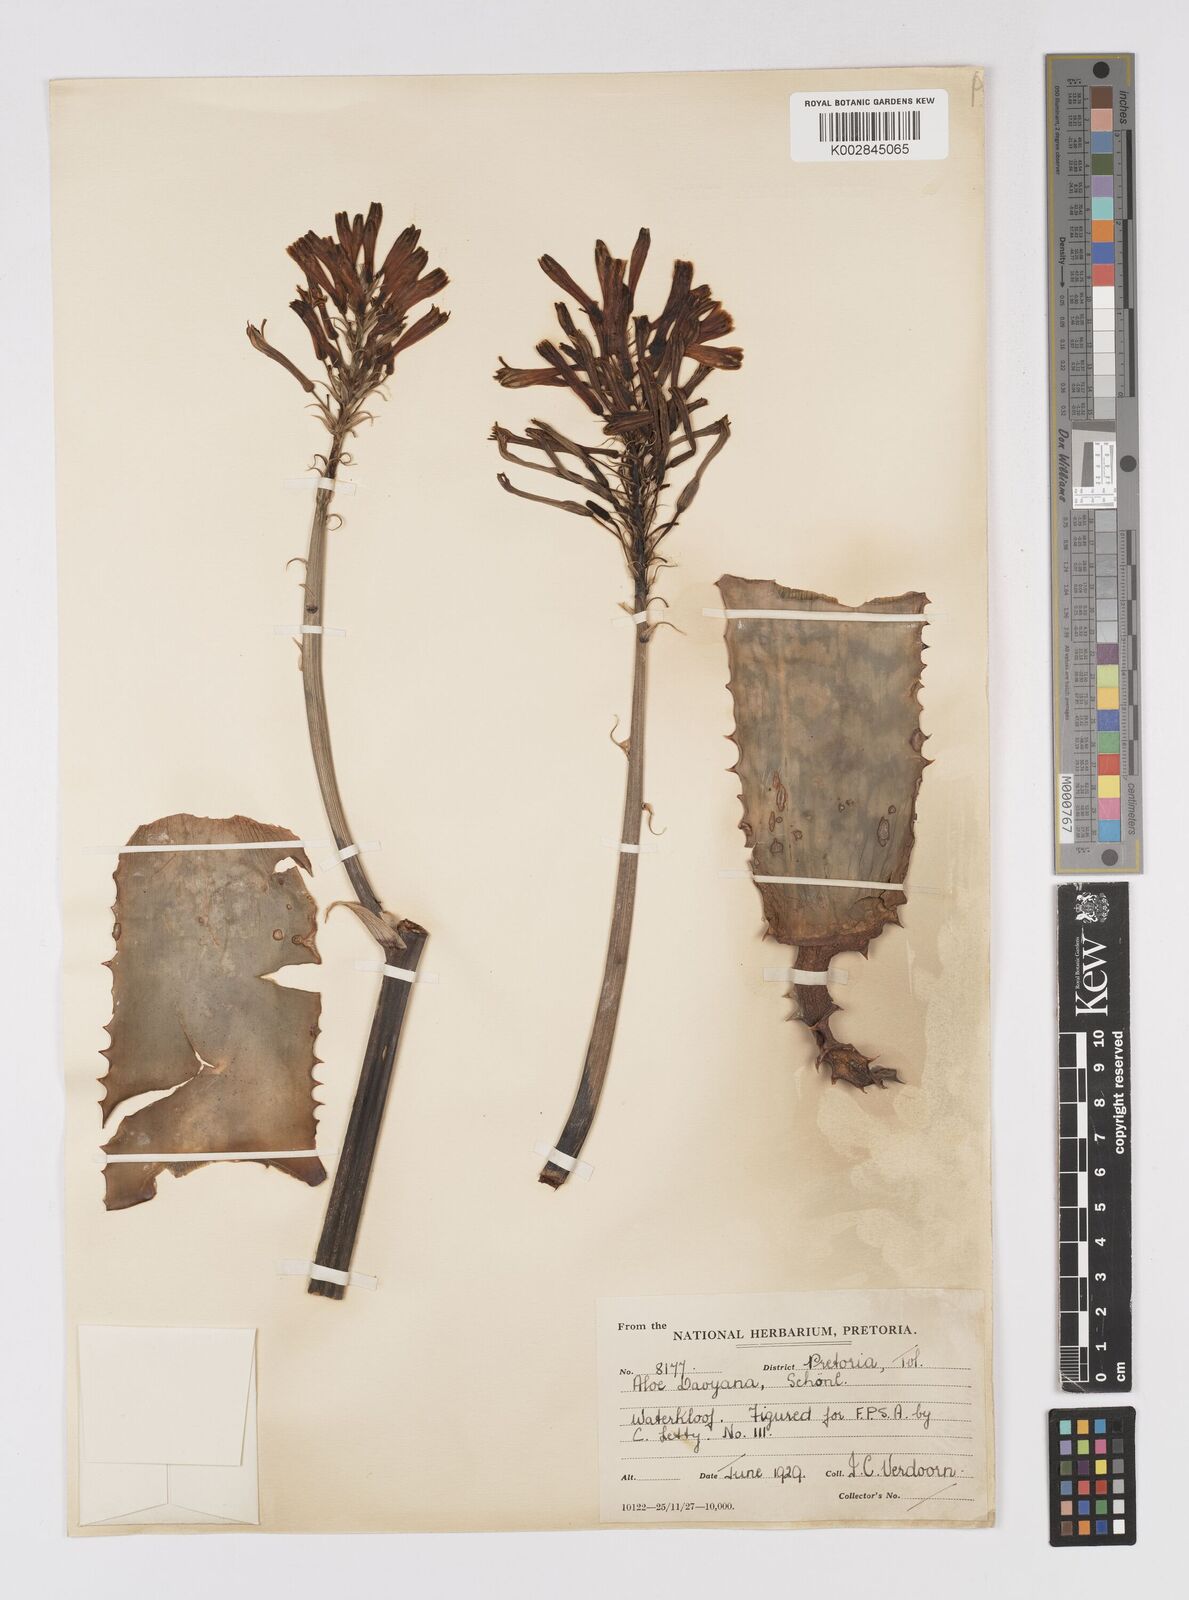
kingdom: Plantae
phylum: Tracheophyta
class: Liliopsida
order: Asparagales
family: Asphodelaceae
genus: Aloe
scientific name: Aloe davyana
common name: Spotted aloe
